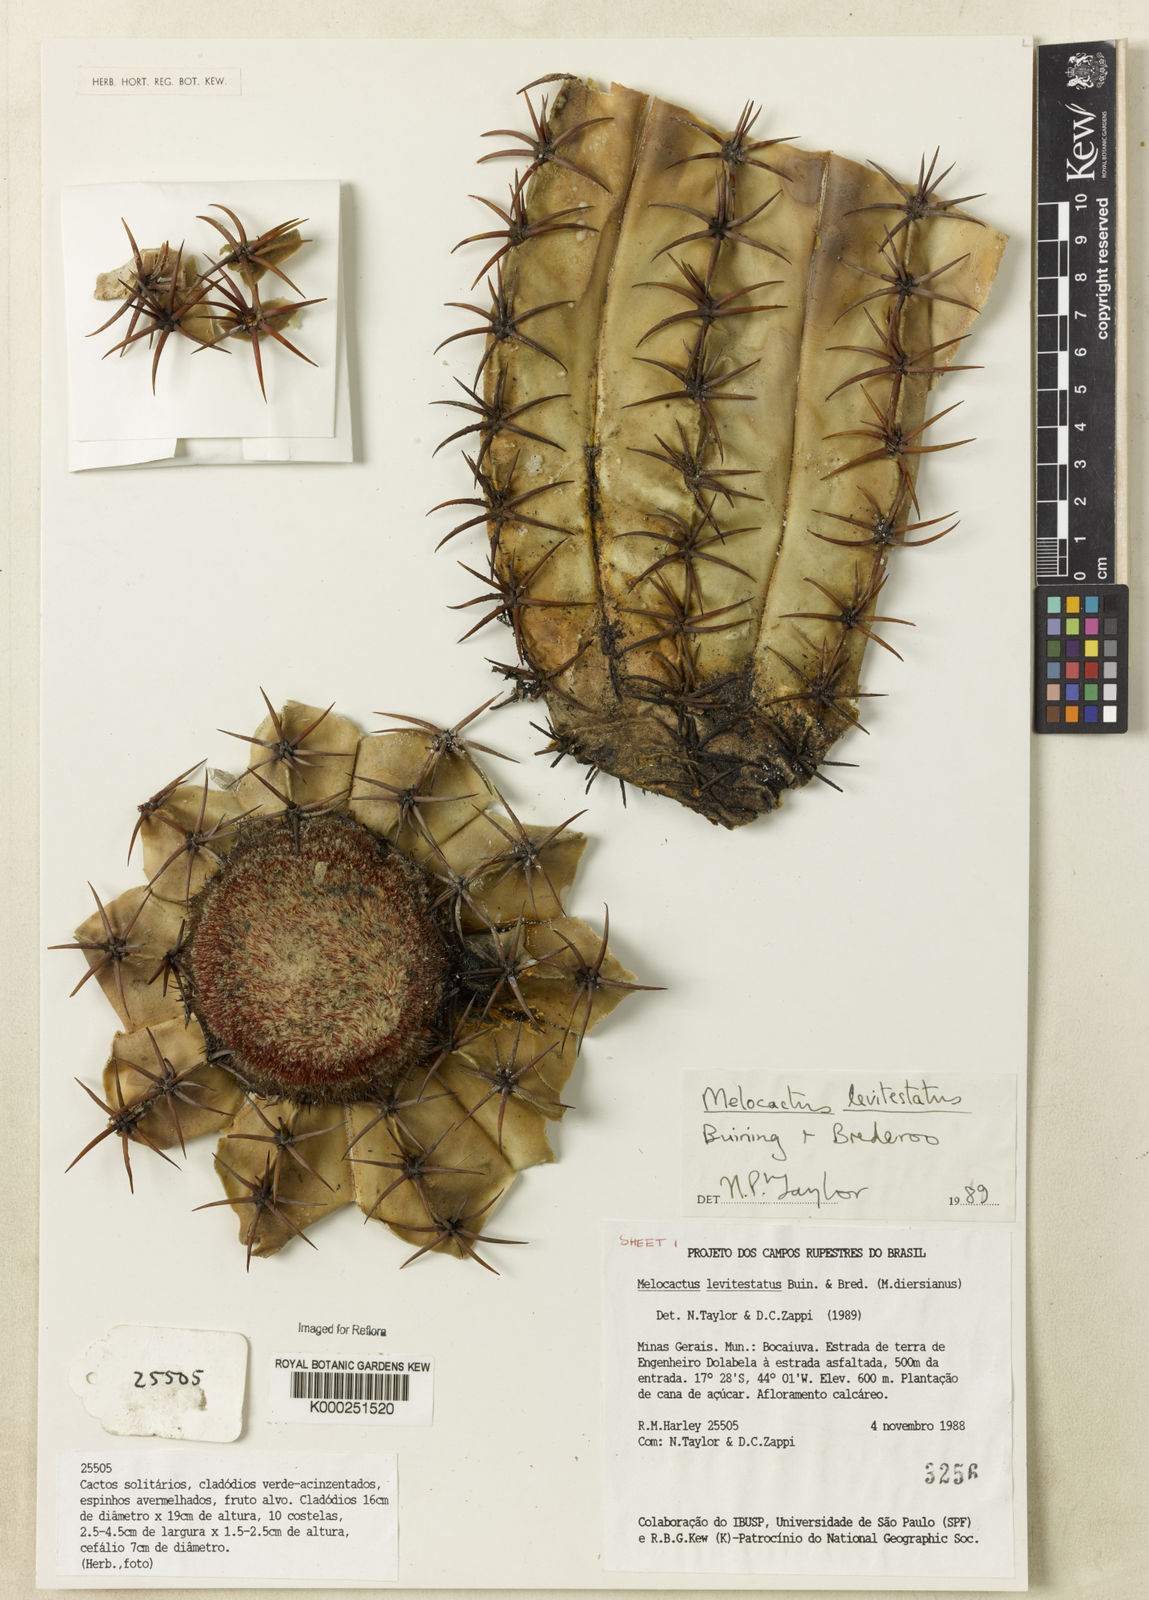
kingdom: Plantae
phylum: Tracheophyta
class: Magnoliopsida
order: Caryophyllales
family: Cactaceae
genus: Melocactus
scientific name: Melocactus levitestatus
